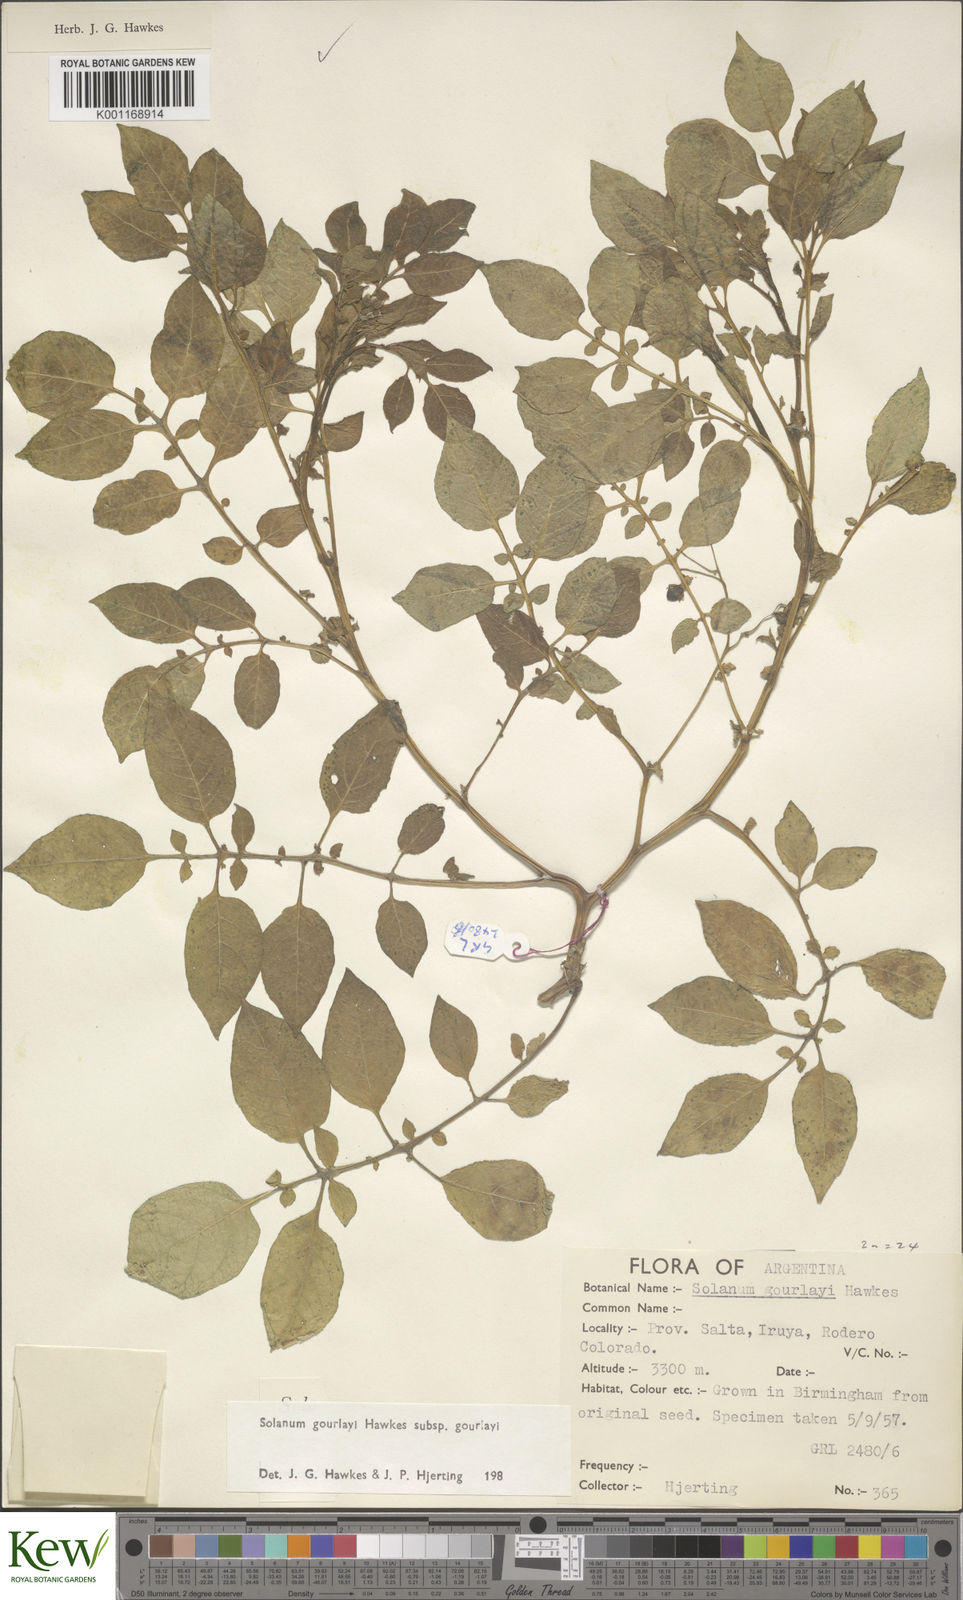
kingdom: Plantae
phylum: Tracheophyta
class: Magnoliopsida
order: Solanales
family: Solanaceae
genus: Solanum
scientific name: Solanum brevicaule
